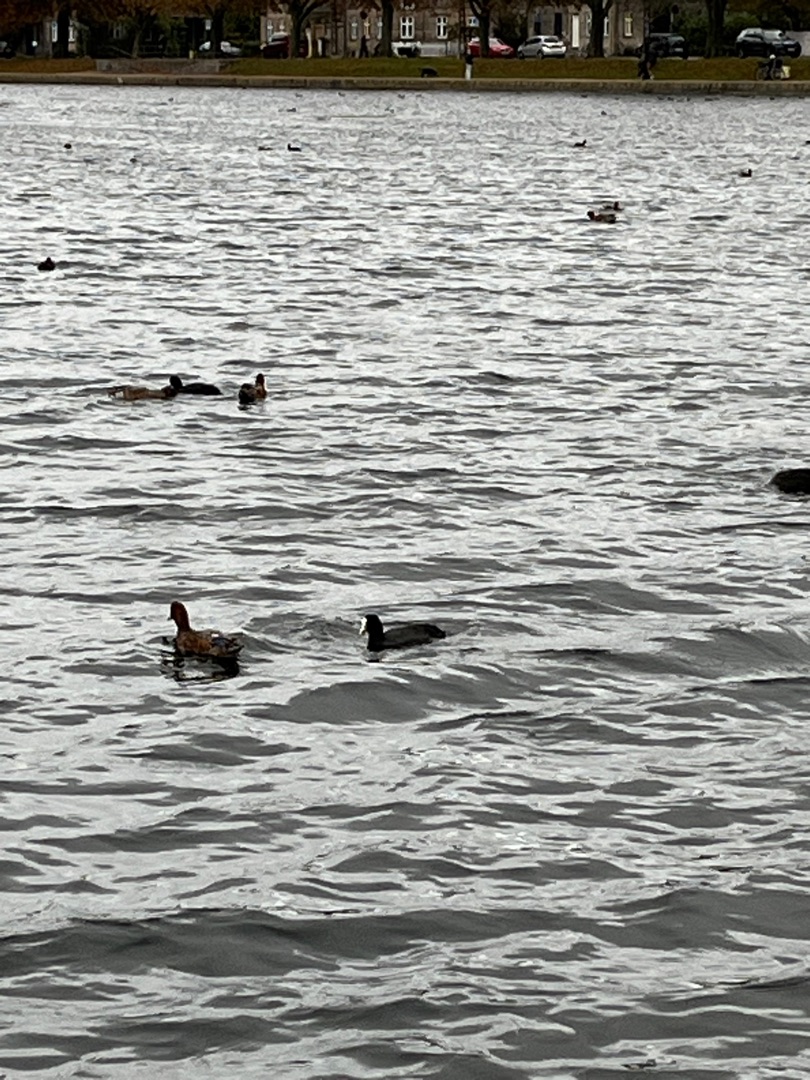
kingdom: Animalia
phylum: Chordata
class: Aves
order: Gruiformes
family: Rallidae
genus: Fulica
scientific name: Fulica atra
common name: Blishøne
